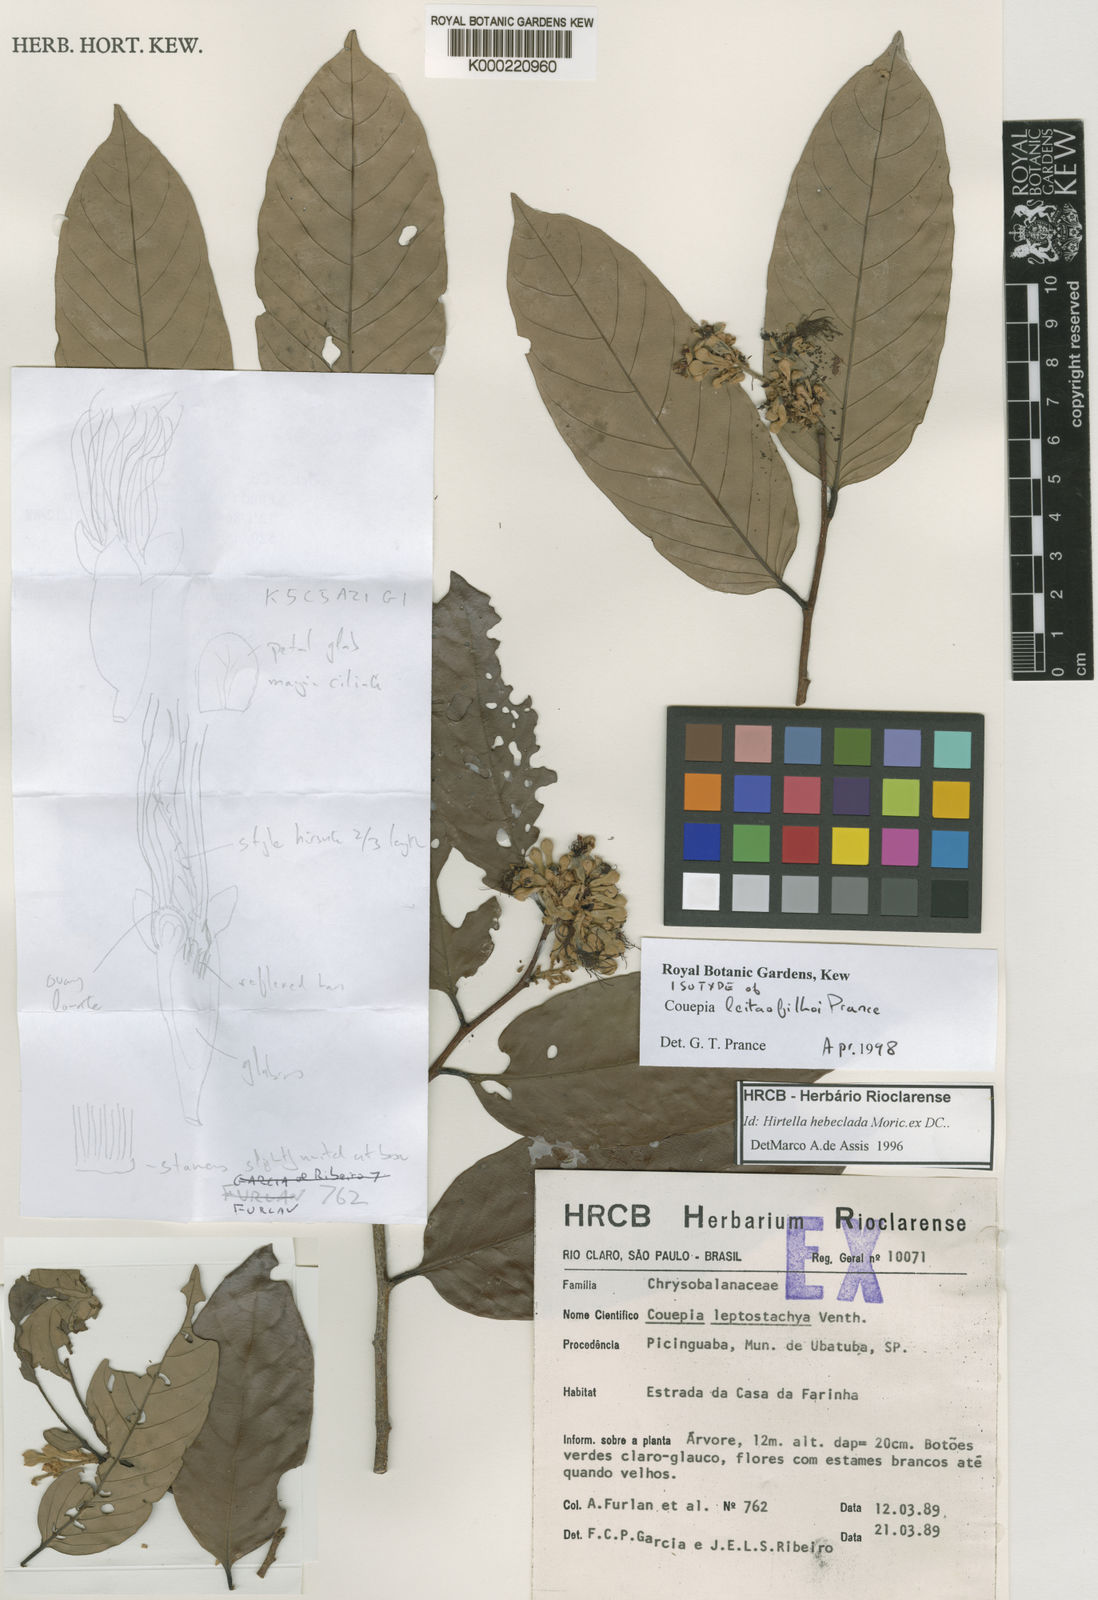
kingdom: Plantae
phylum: Tracheophyta
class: Magnoliopsida
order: Malpighiales
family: Chrysobalanaceae
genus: Couepia
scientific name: Couepia leitaofilhoi
